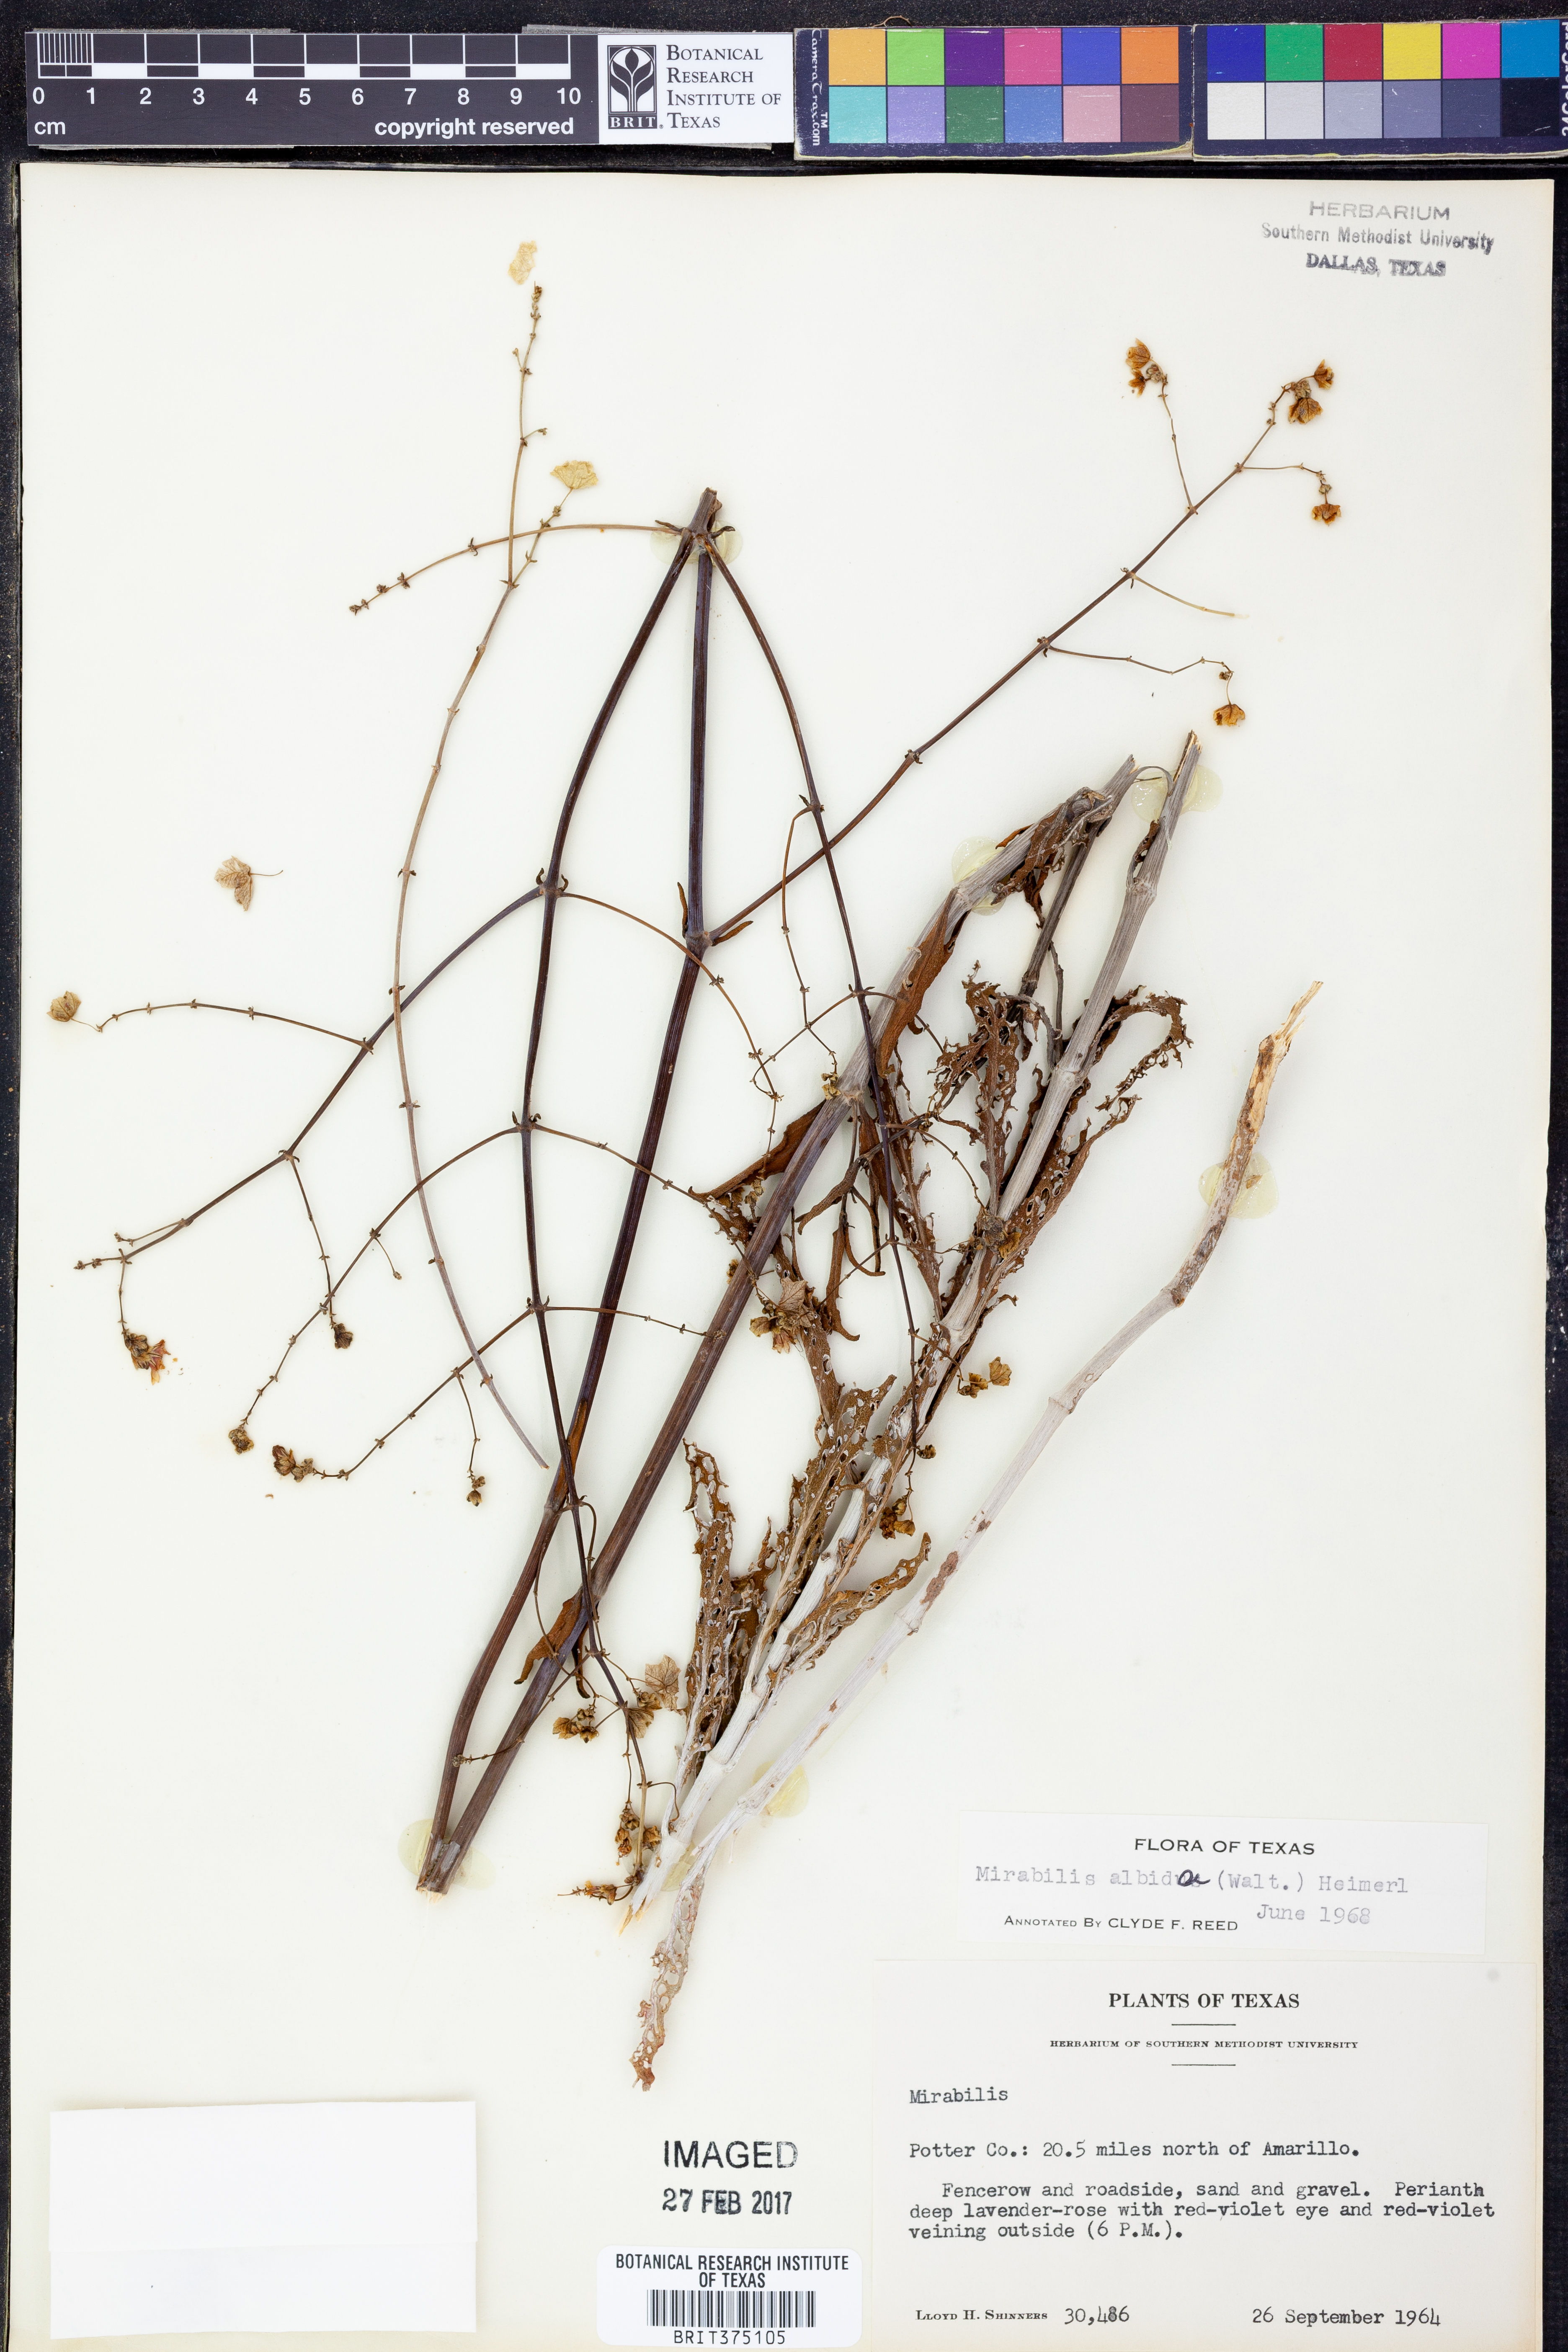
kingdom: Plantae
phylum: Tracheophyta
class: Magnoliopsida
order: Caryophyllales
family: Nyctaginaceae
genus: Mirabilis
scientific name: Mirabilis albida
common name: Hairy four-o'clock
